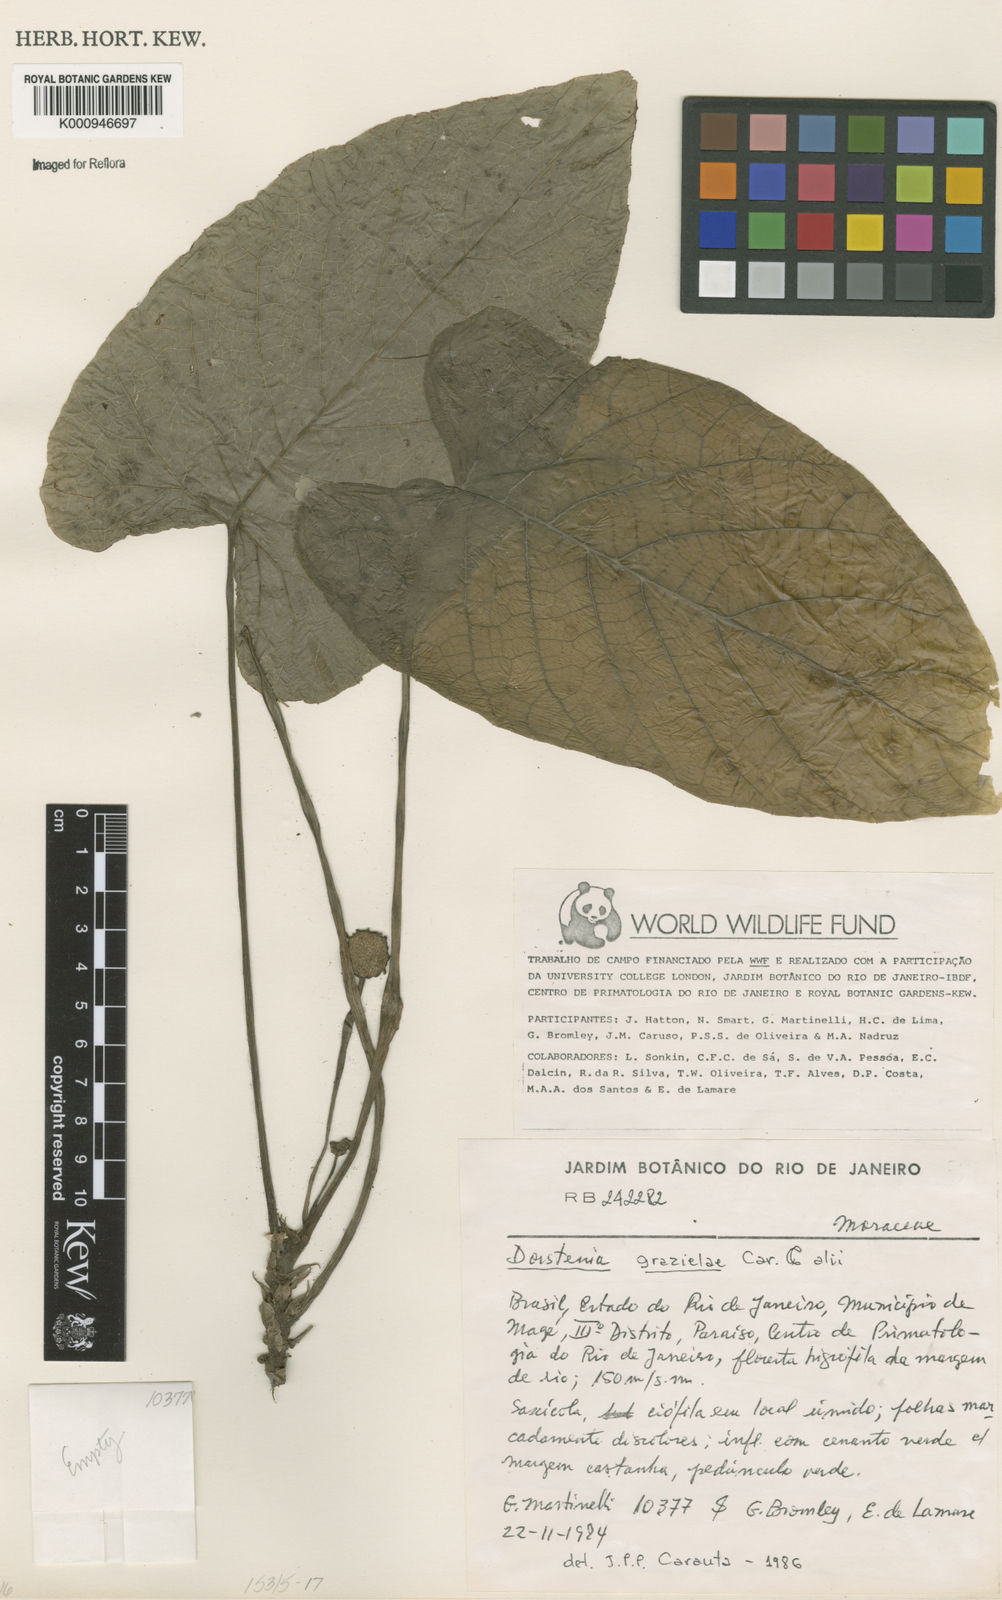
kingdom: Plantae
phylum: Tracheophyta
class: Magnoliopsida
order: Rosales
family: Moraceae
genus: Dorstenia
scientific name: Dorstenia grazielae
